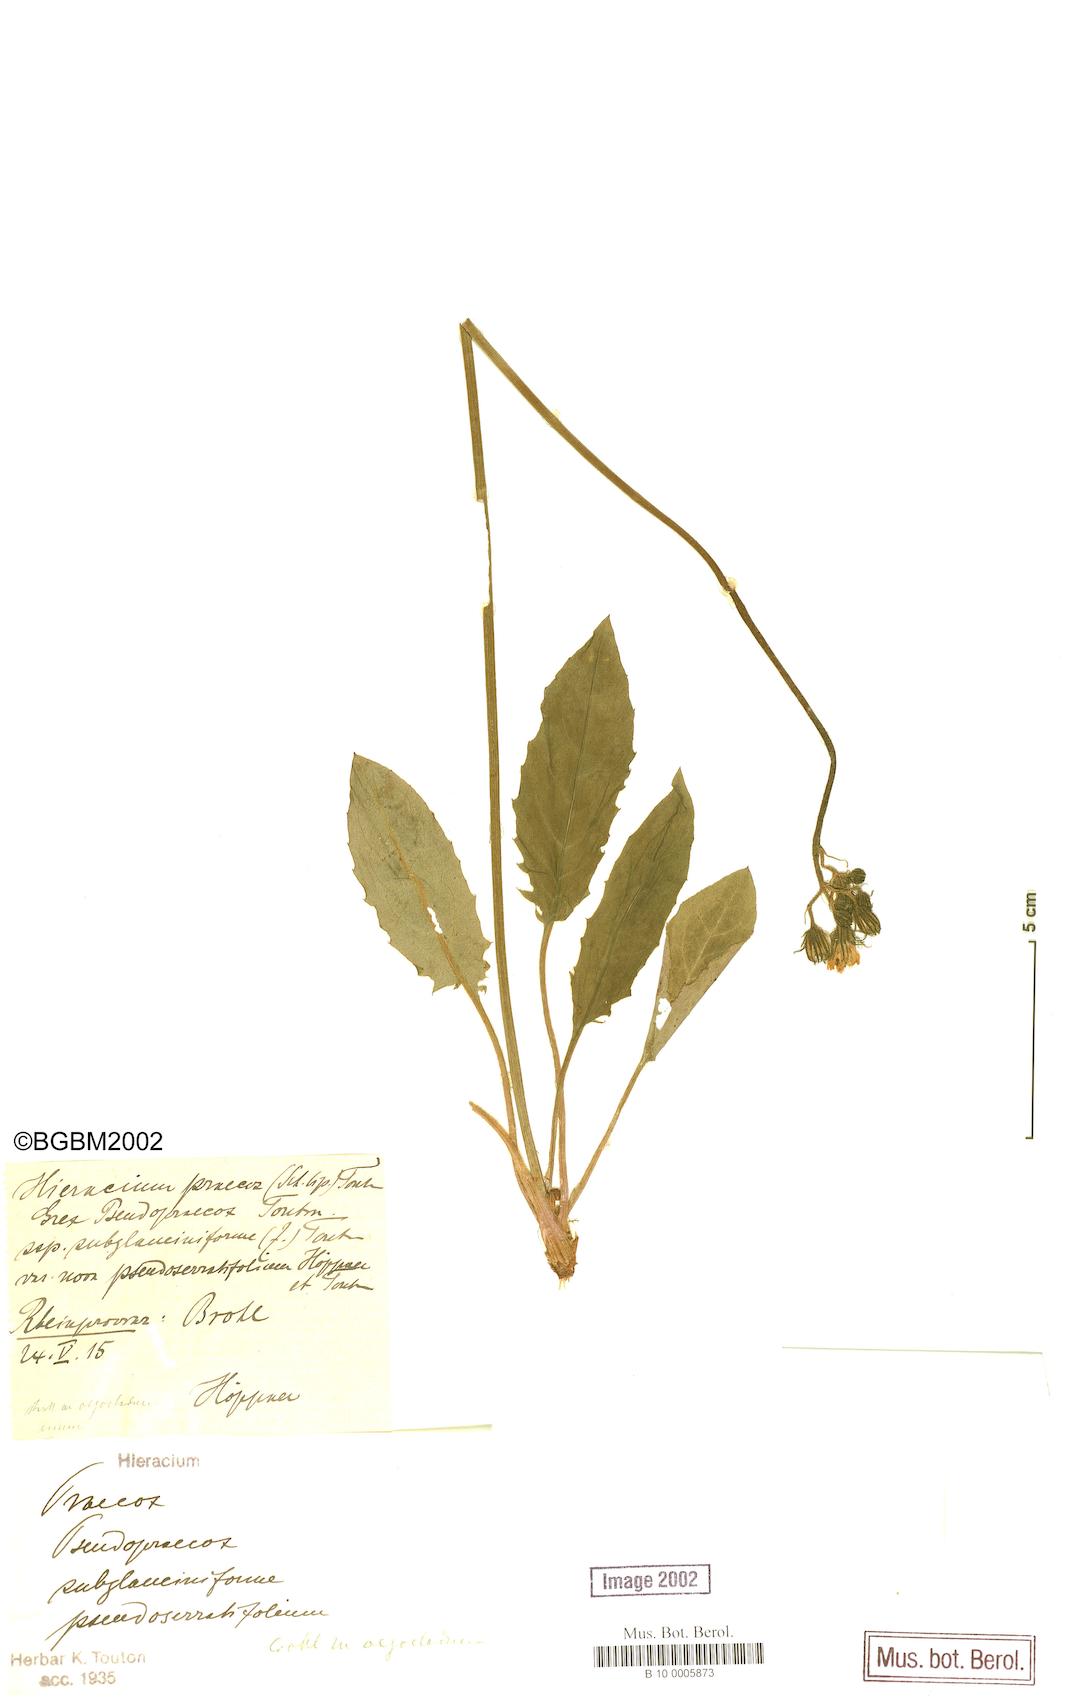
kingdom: Plantae
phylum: Tracheophyta
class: Magnoliopsida
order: Asterales
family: Asteraceae
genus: Hieracium
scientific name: Hieracium praecox
